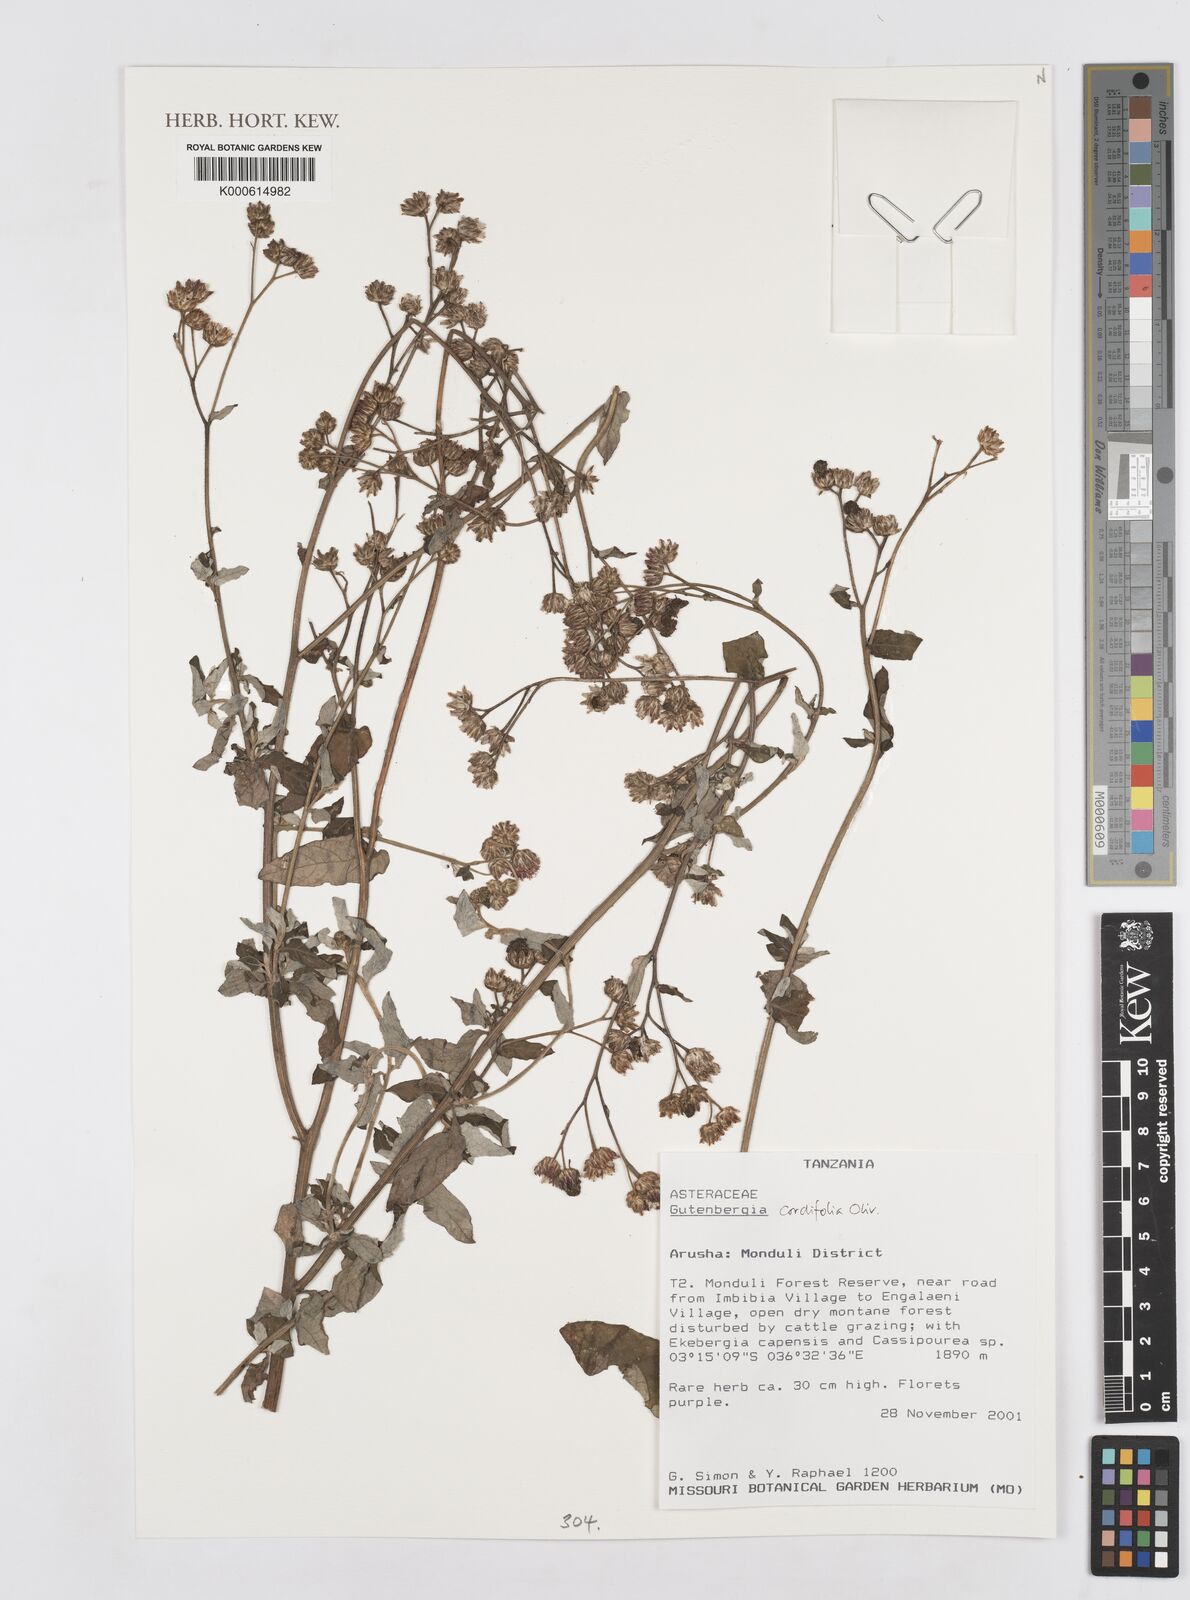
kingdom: Plantae
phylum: Tracheophyta
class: Magnoliopsida
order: Asterales
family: Asteraceae
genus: Gutenbergia
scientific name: Gutenbergia cordifolia
